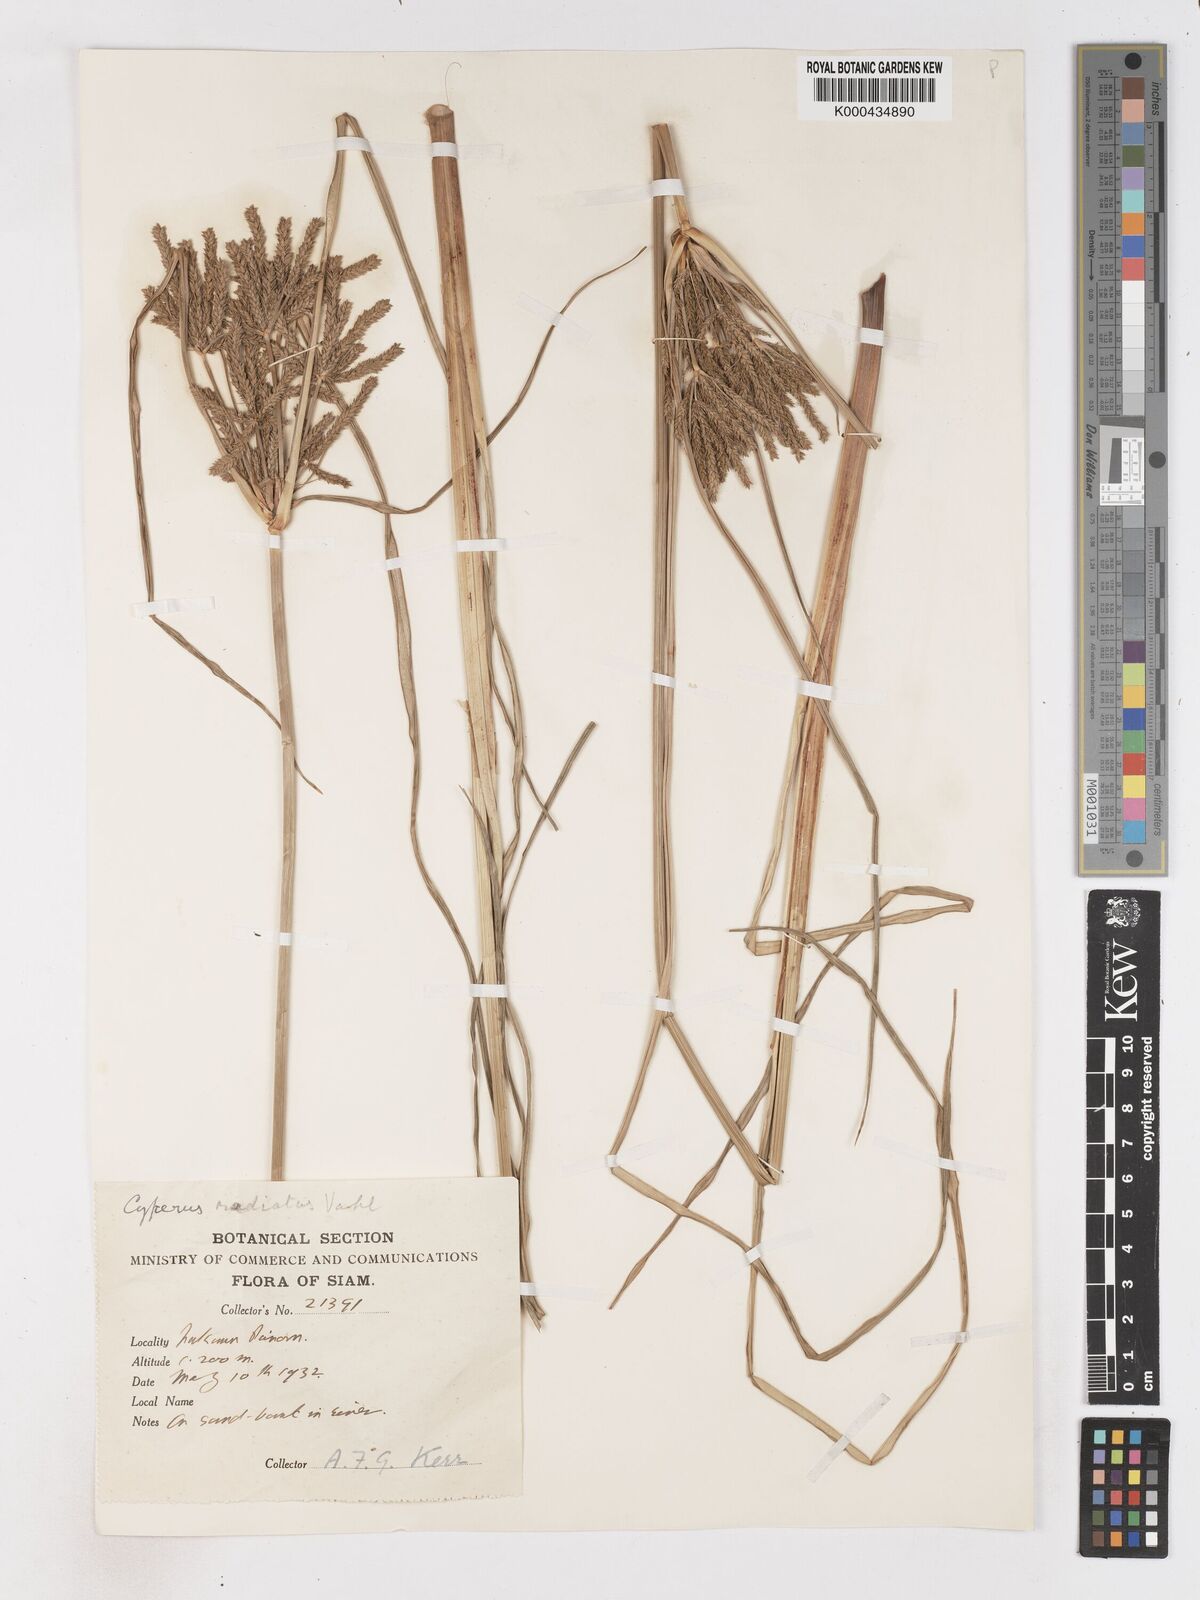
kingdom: Plantae
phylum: Tracheophyta
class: Liliopsida
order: Poales
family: Cyperaceae
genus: Cyperus
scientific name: Cyperus imbricatus
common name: Shingle flatsedge
